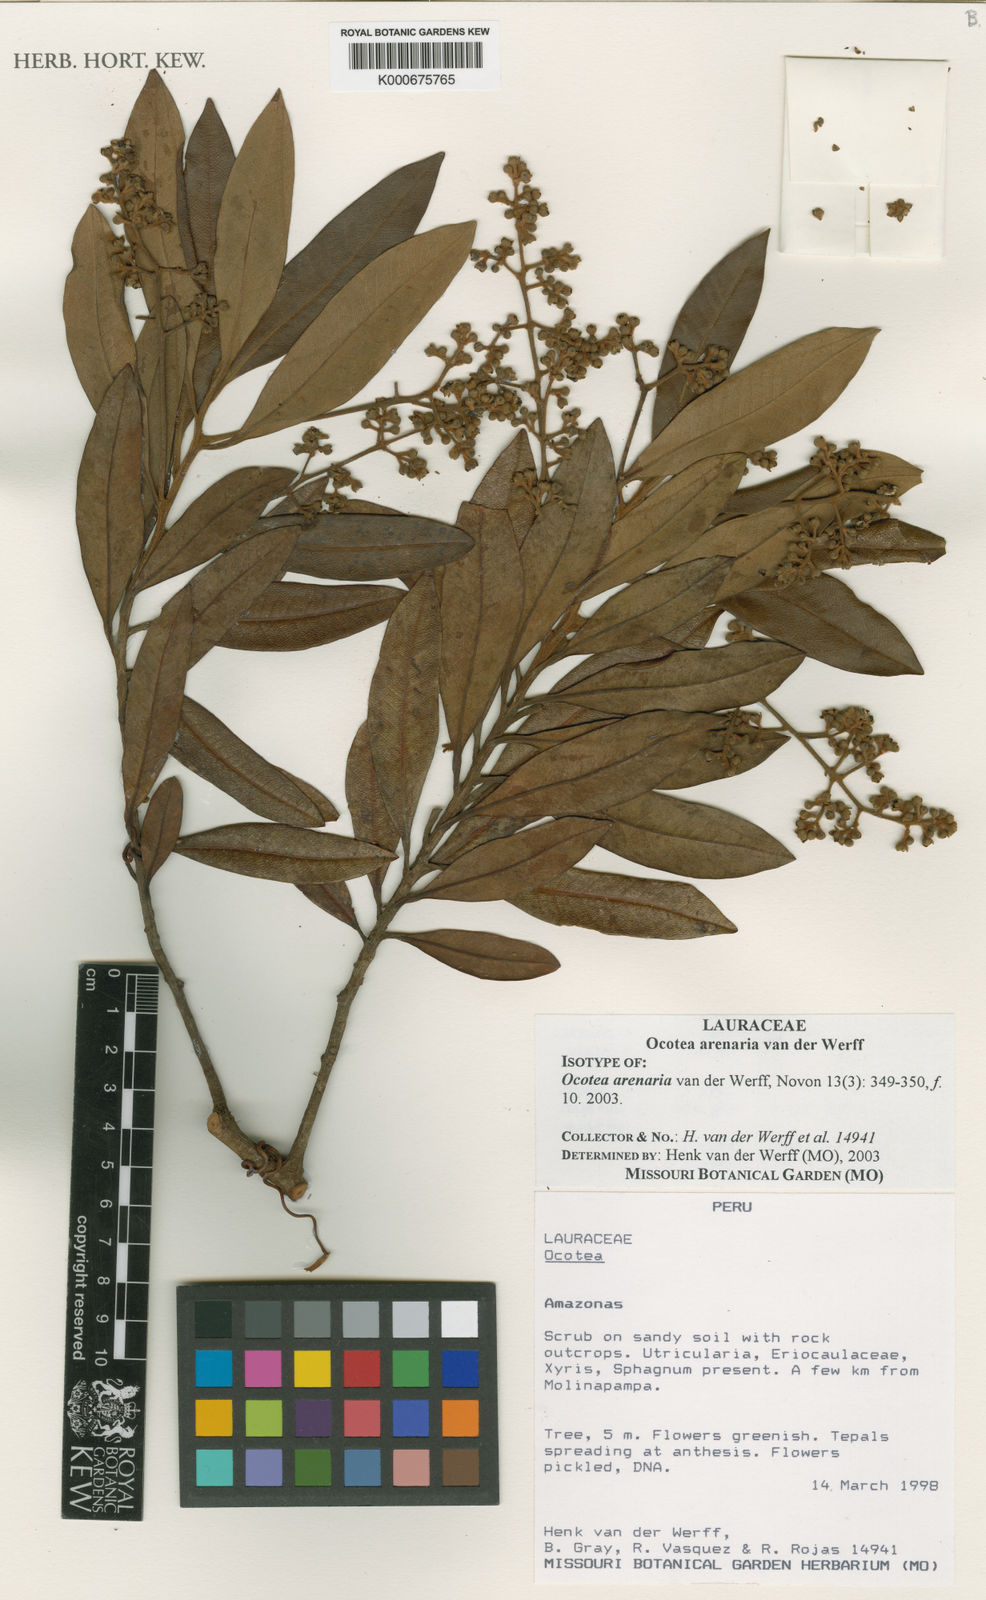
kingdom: Plantae
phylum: Tracheophyta
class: Magnoliopsida
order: Laurales
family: Lauraceae
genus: Ocotea
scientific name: Ocotea arenaria
